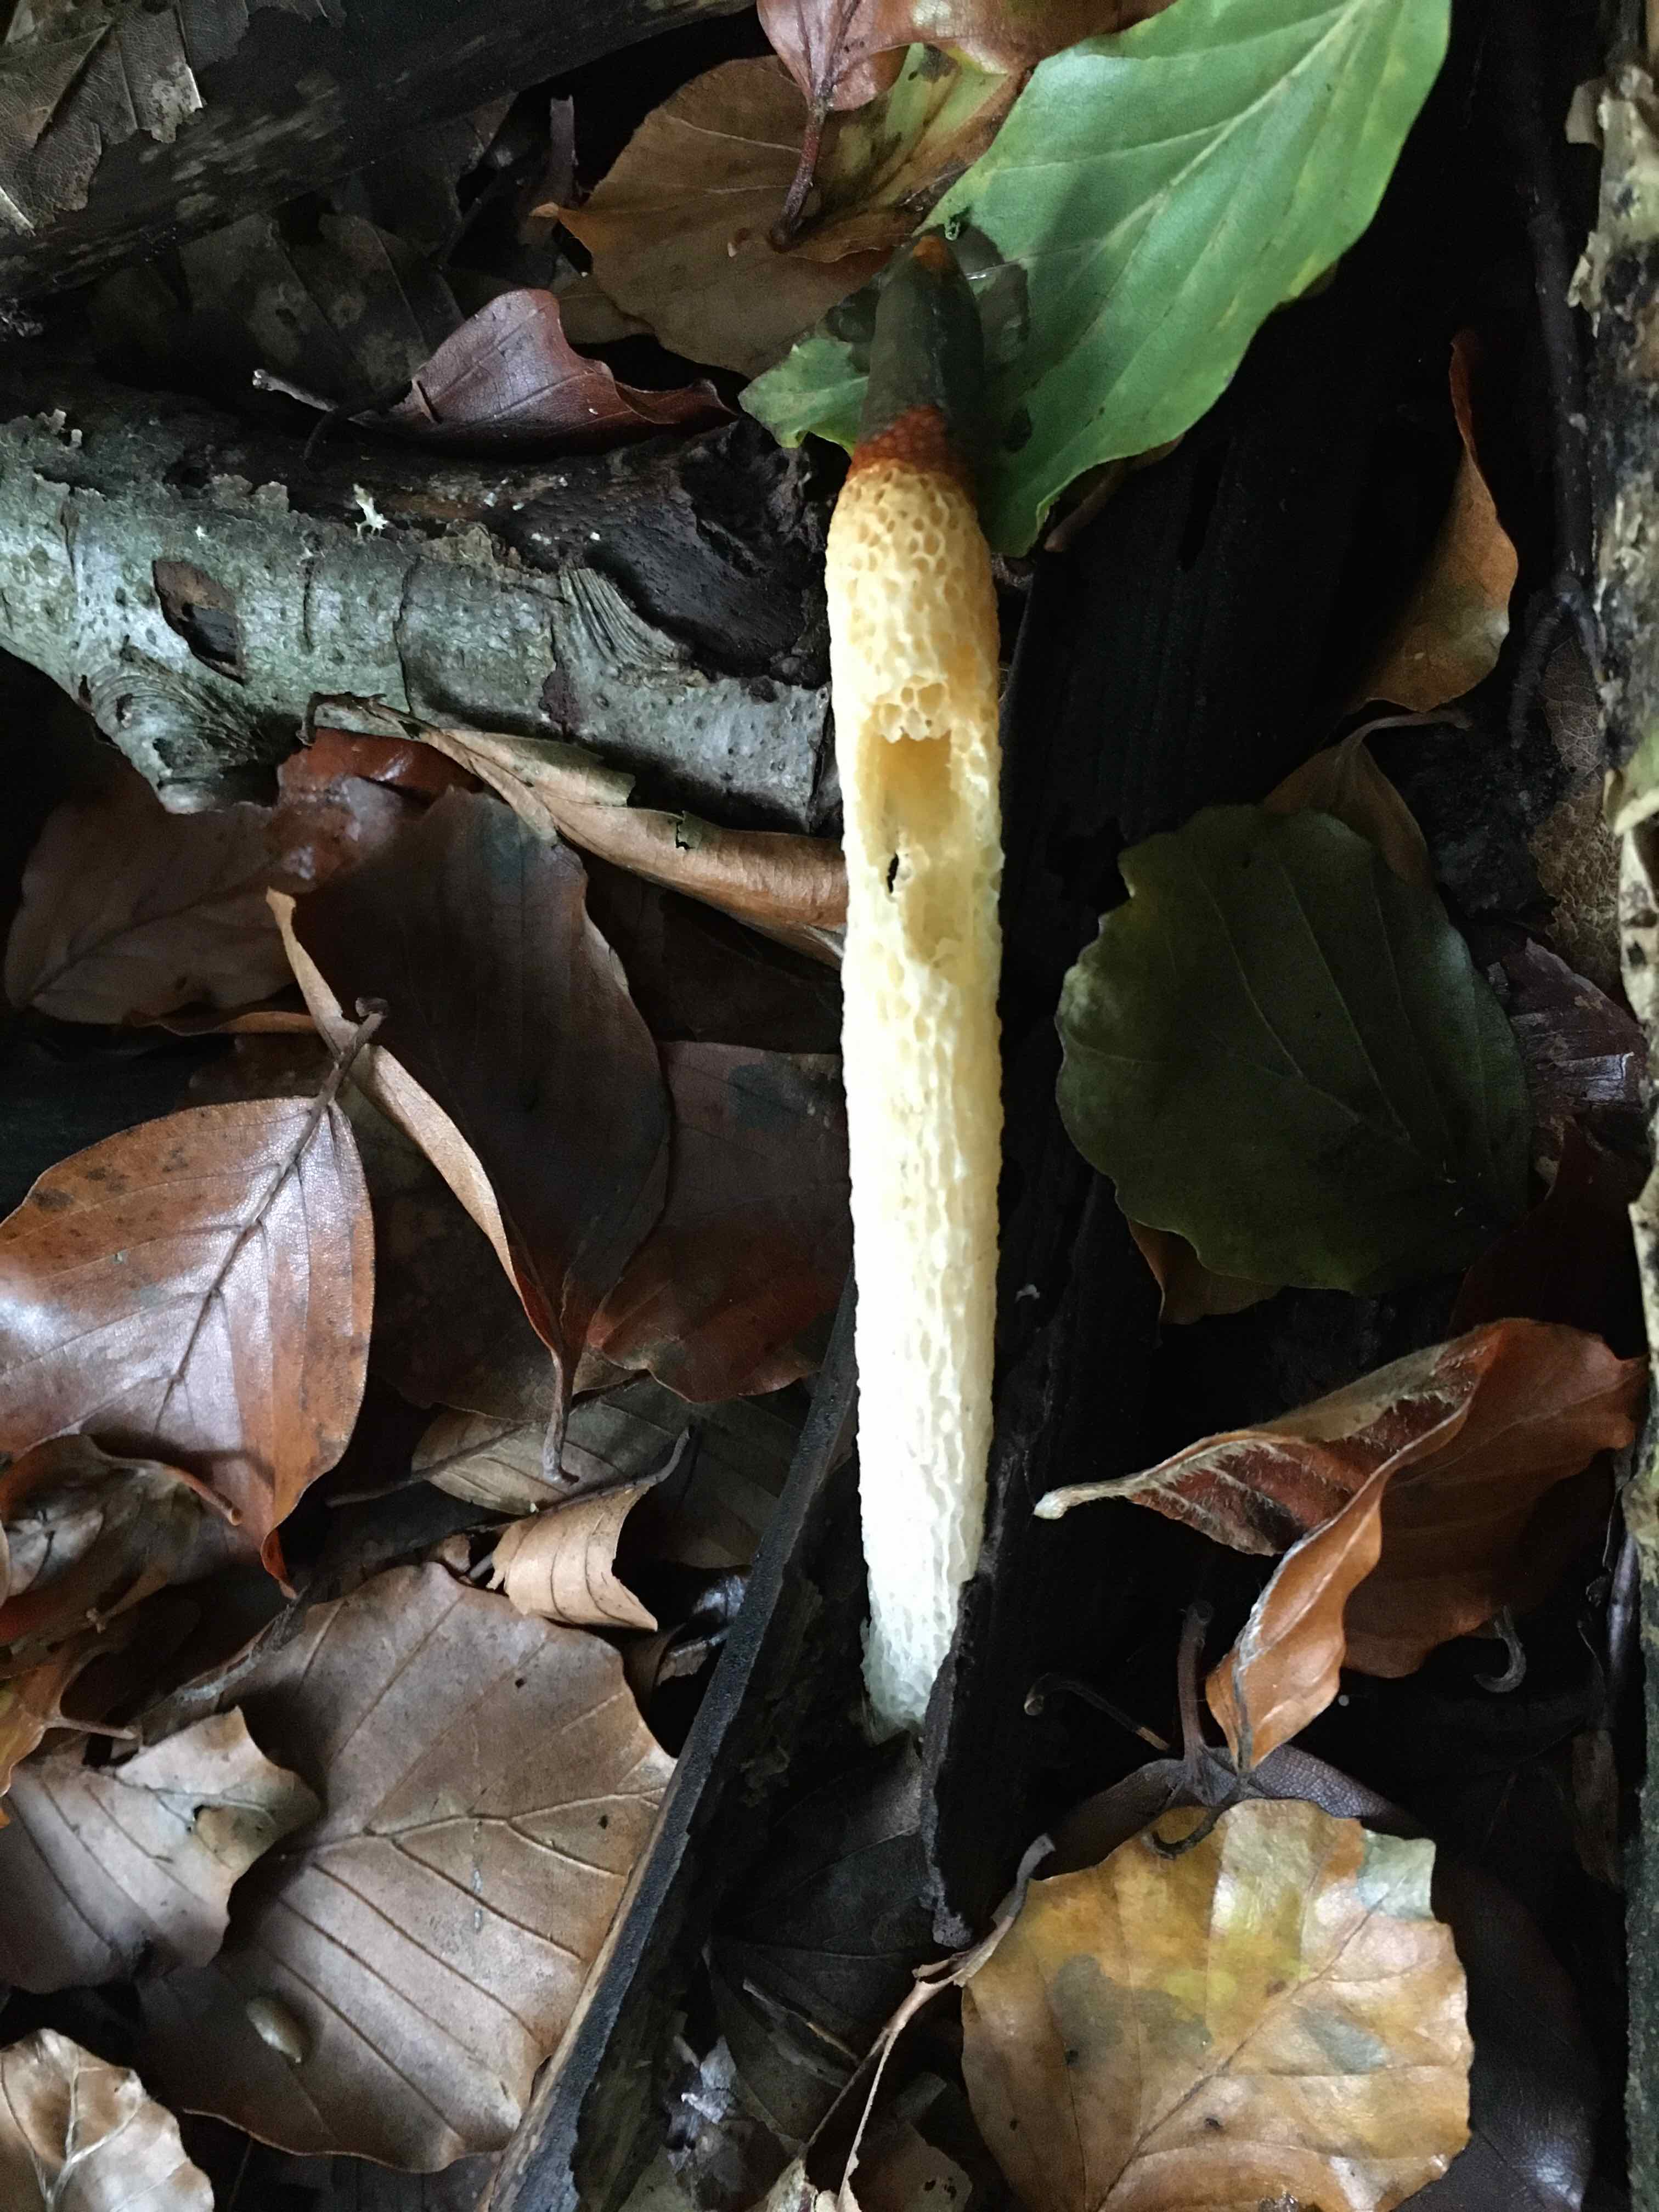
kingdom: Fungi
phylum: Basidiomycota
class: Agaricomycetes
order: Phallales
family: Phallaceae
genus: Mutinus
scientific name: Mutinus caninus
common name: hunde-stinksvamp
